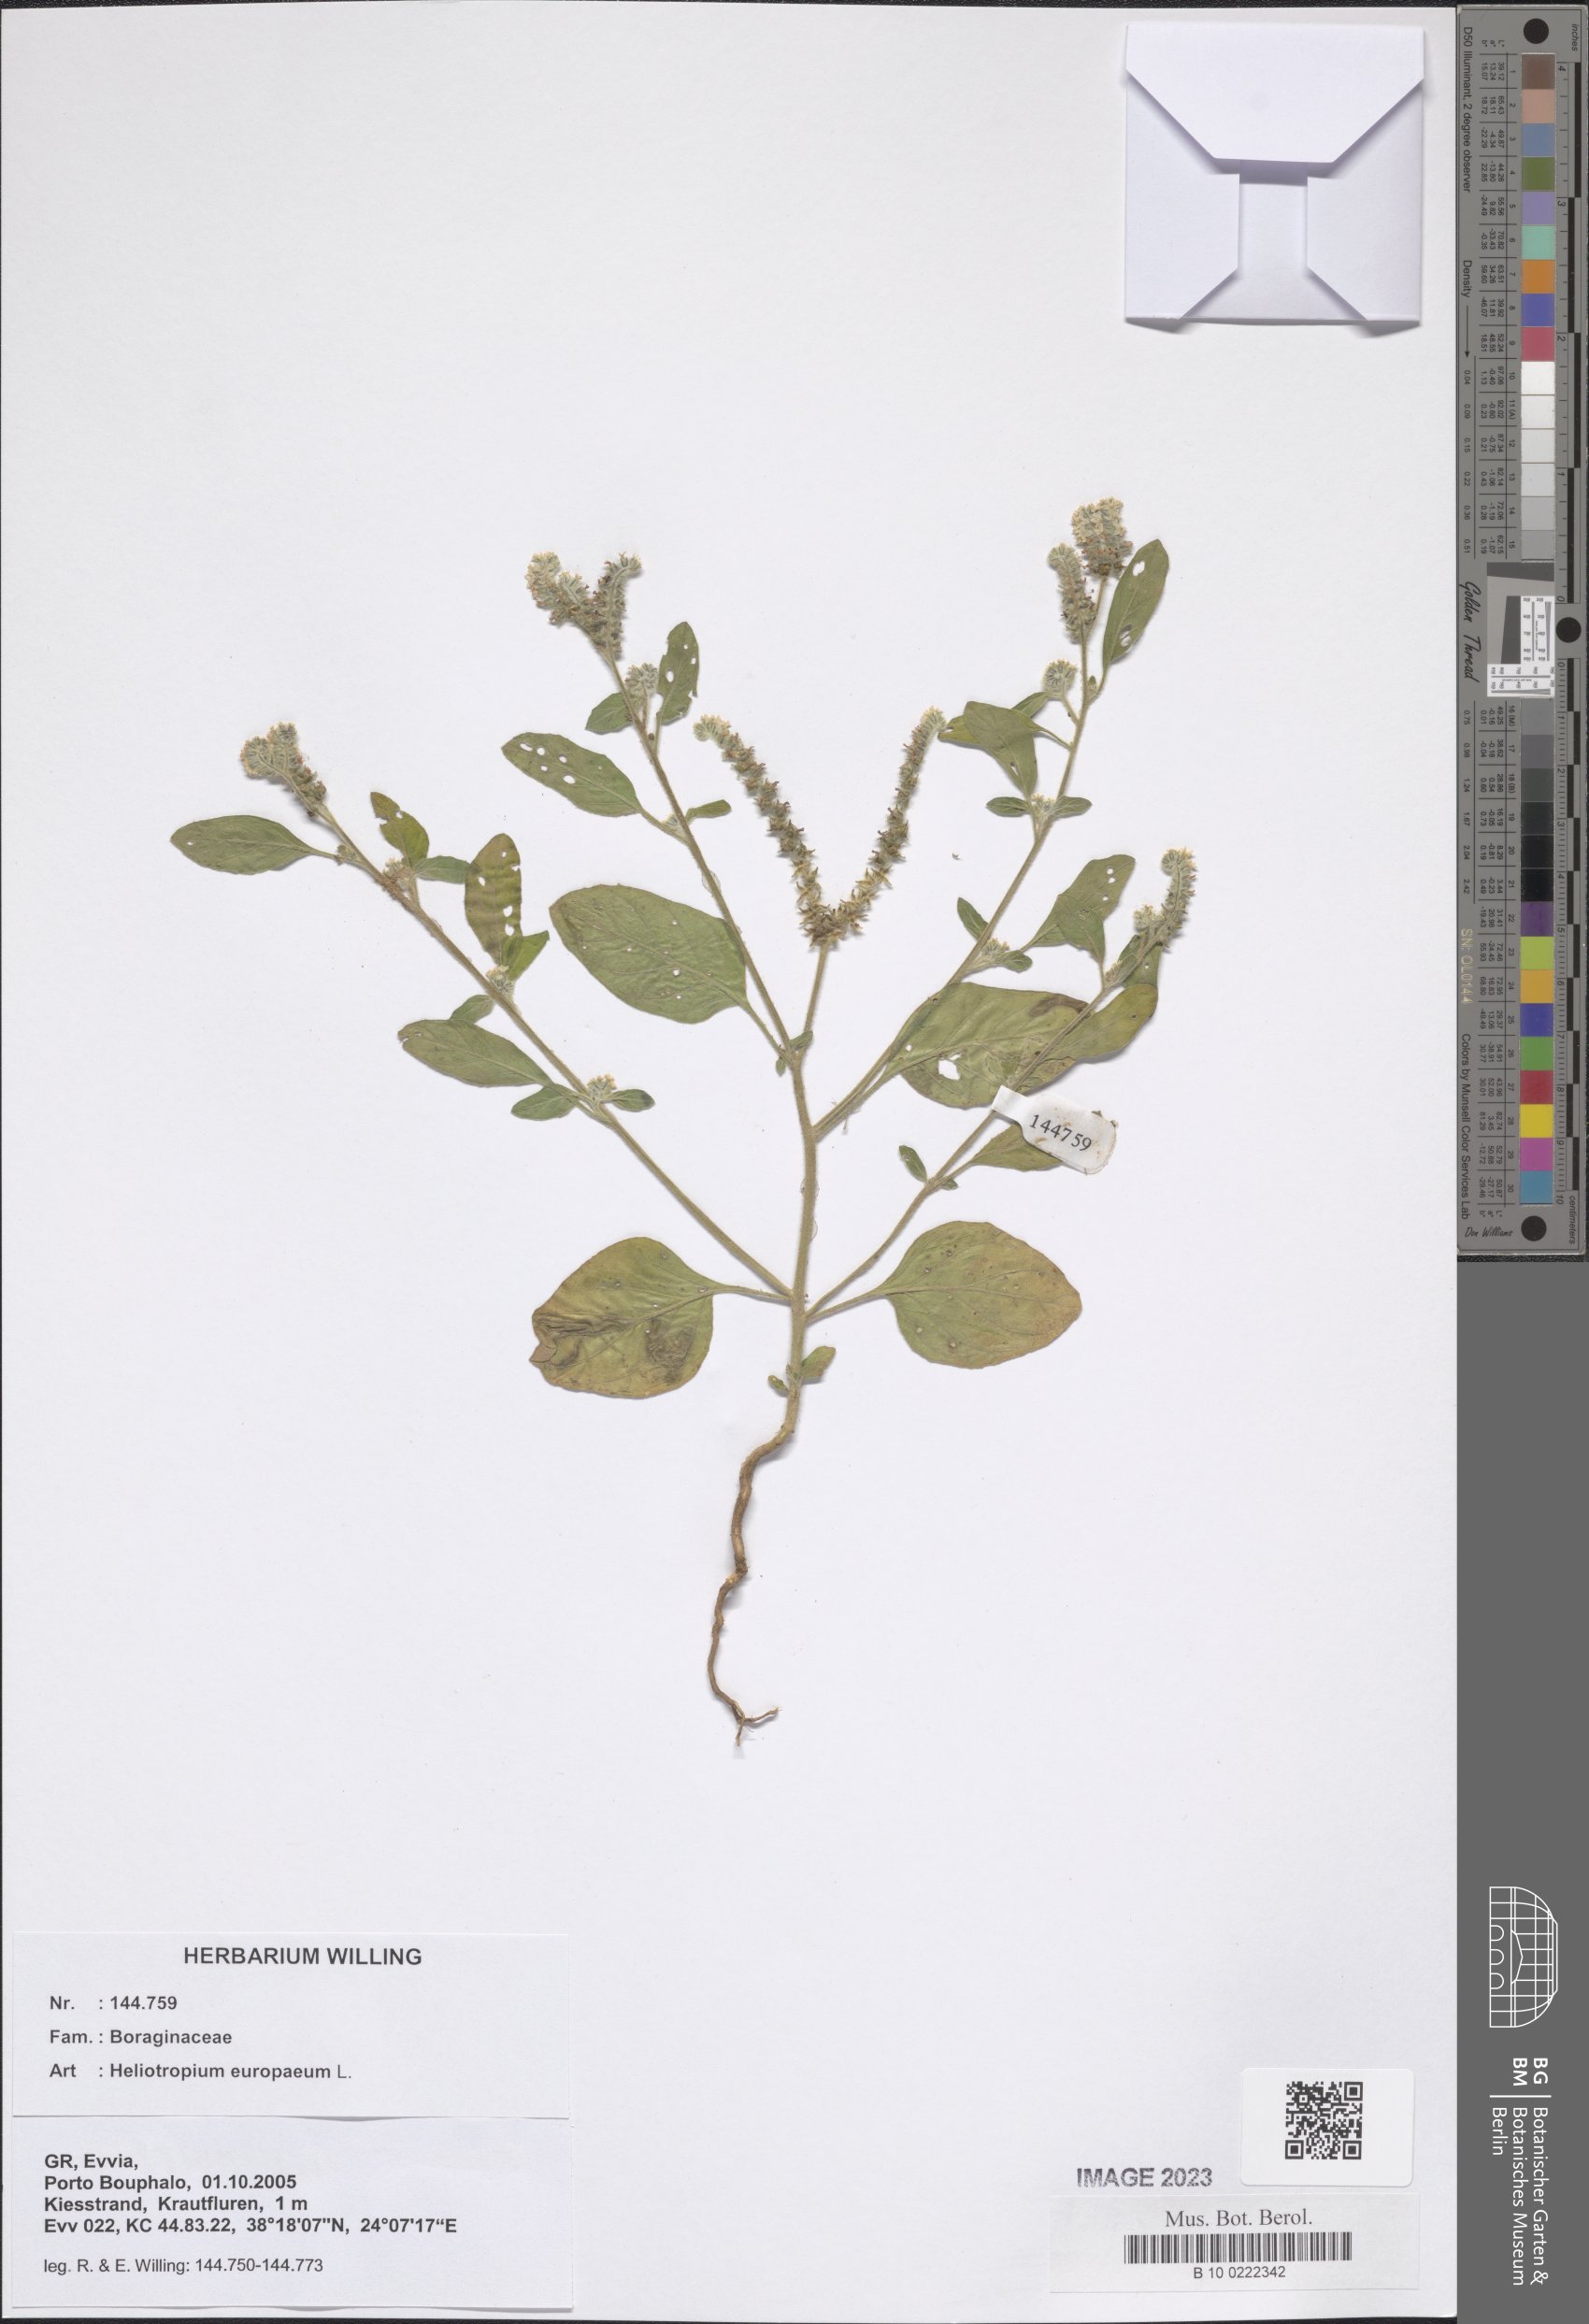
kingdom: Plantae
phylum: Tracheophyta
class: Magnoliopsida
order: Boraginales
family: Heliotropiaceae
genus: Heliotropium
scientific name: Heliotropium europaeum
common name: European heliotrope
